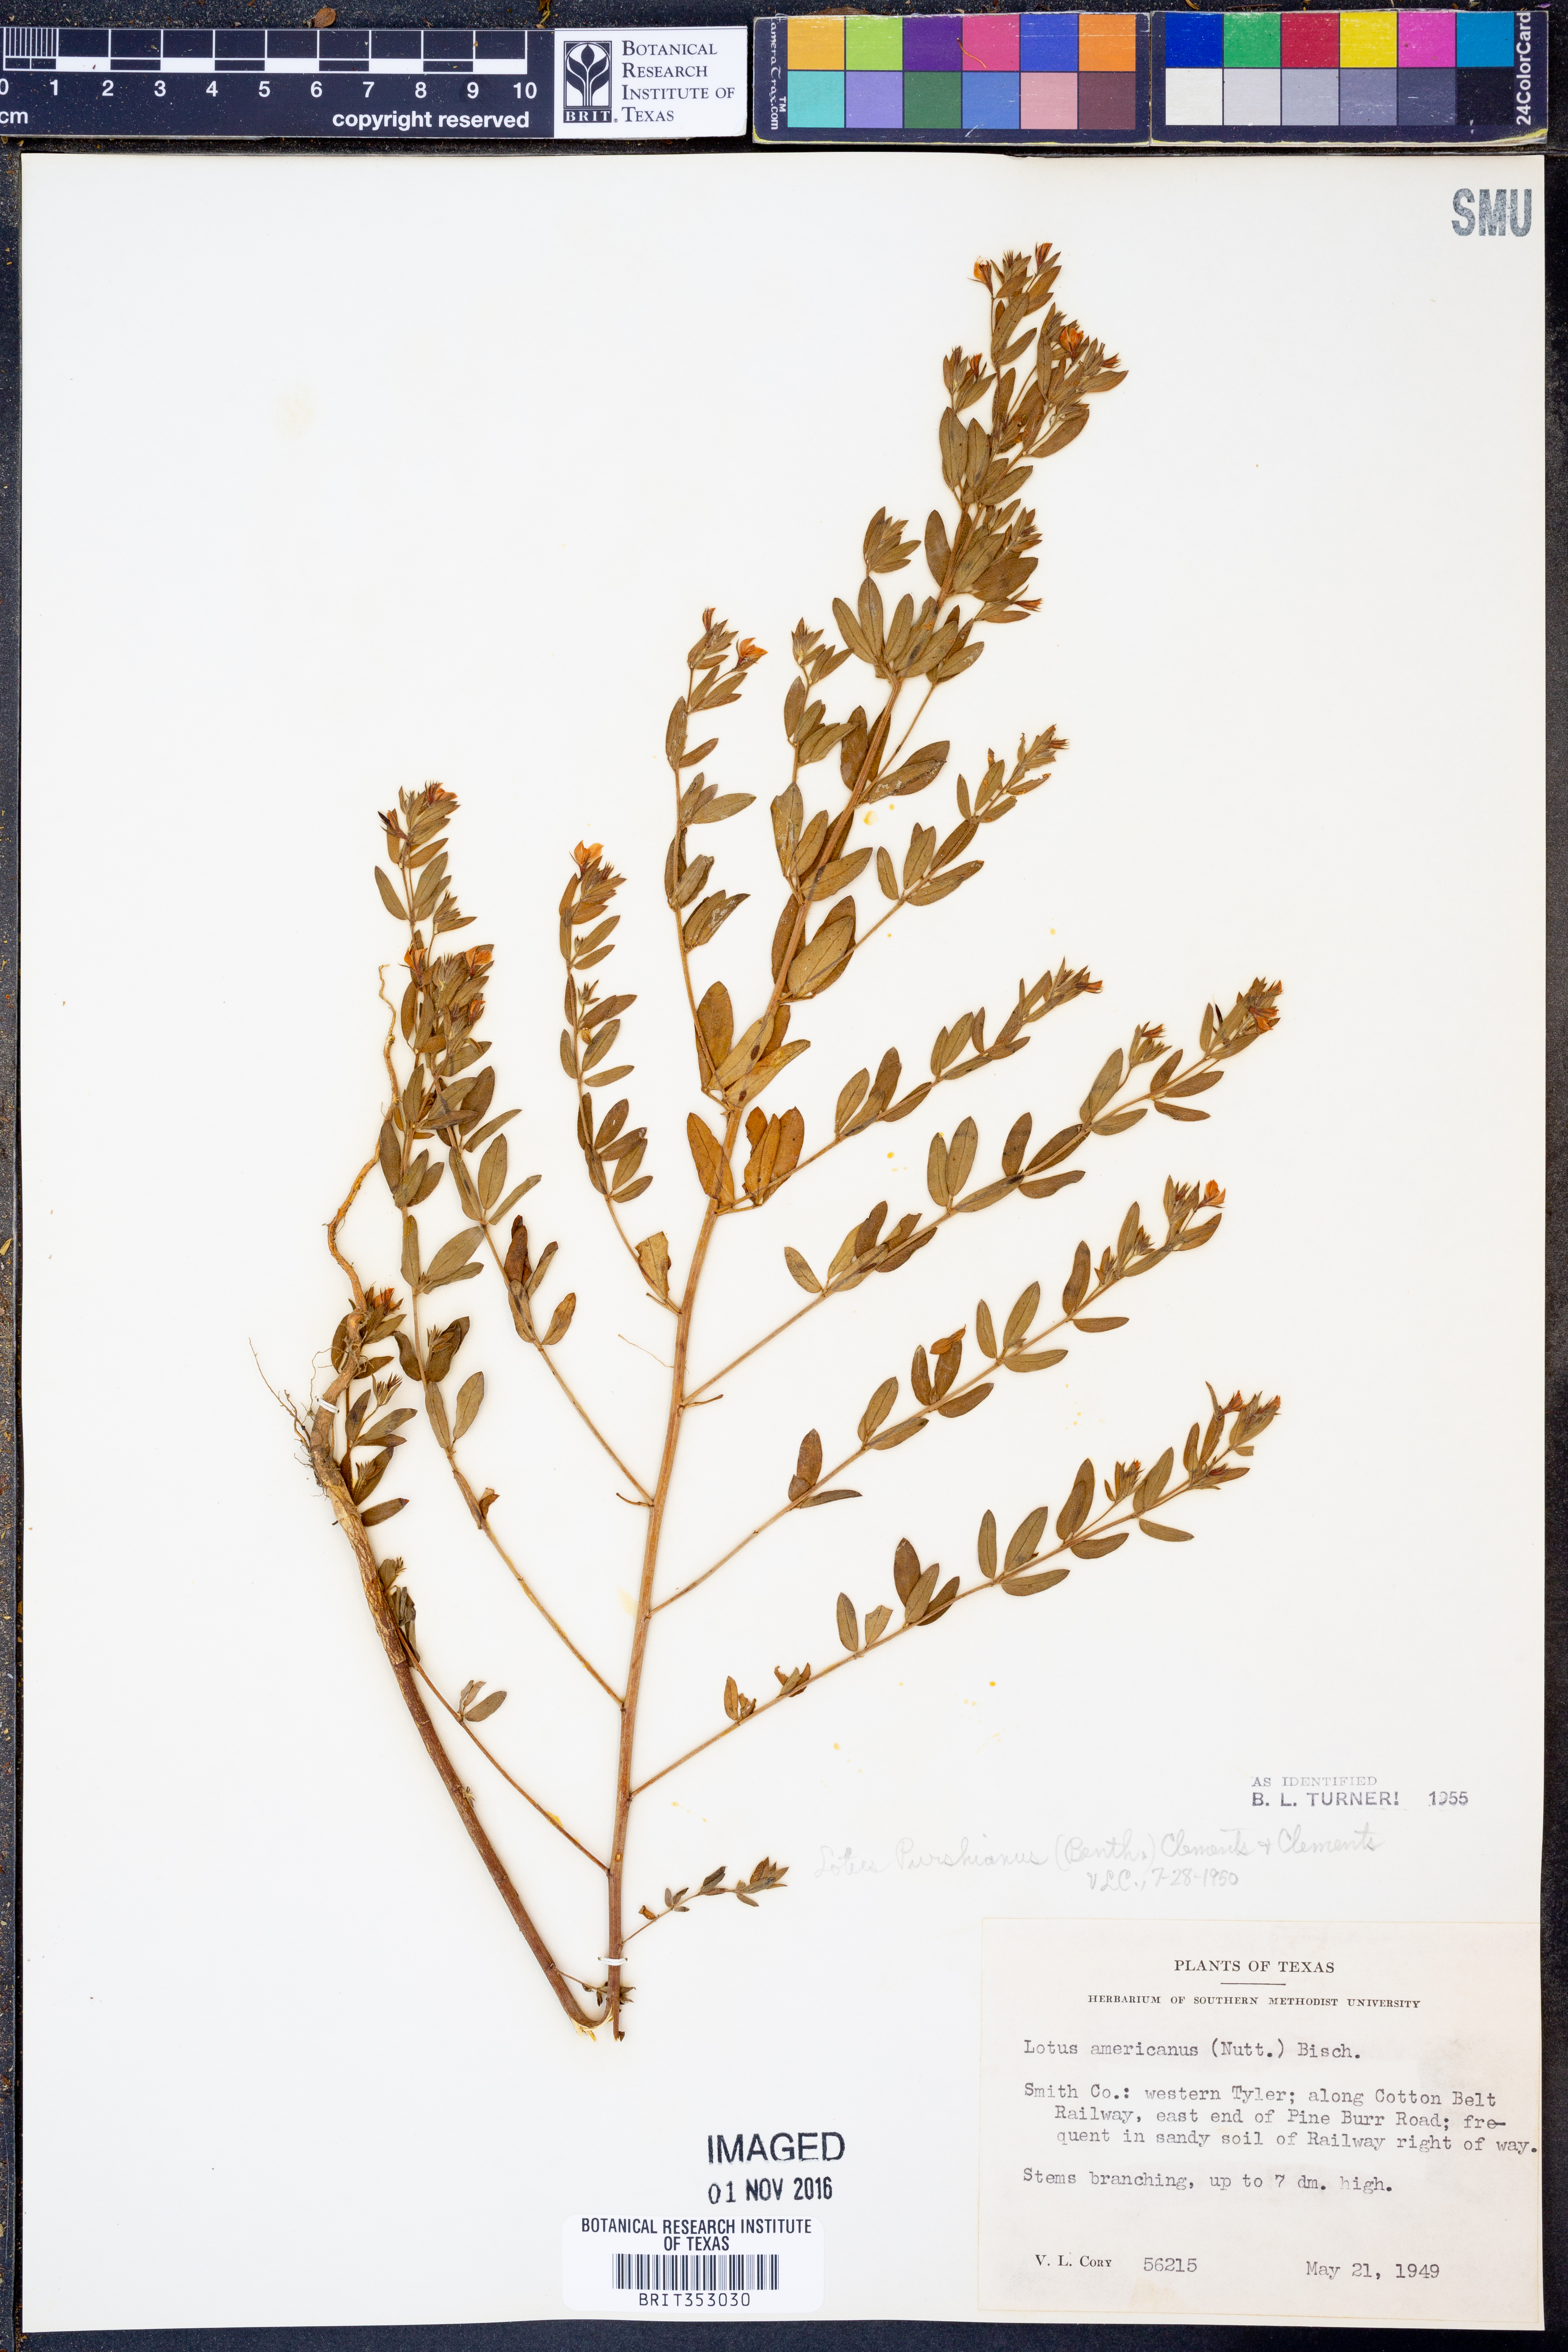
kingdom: Plantae
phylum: Tracheophyta
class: Magnoliopsida
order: Fabales
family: Fabaceae
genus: Acmispon
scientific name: Acmispon americanus
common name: American bird's-foot trefoil
